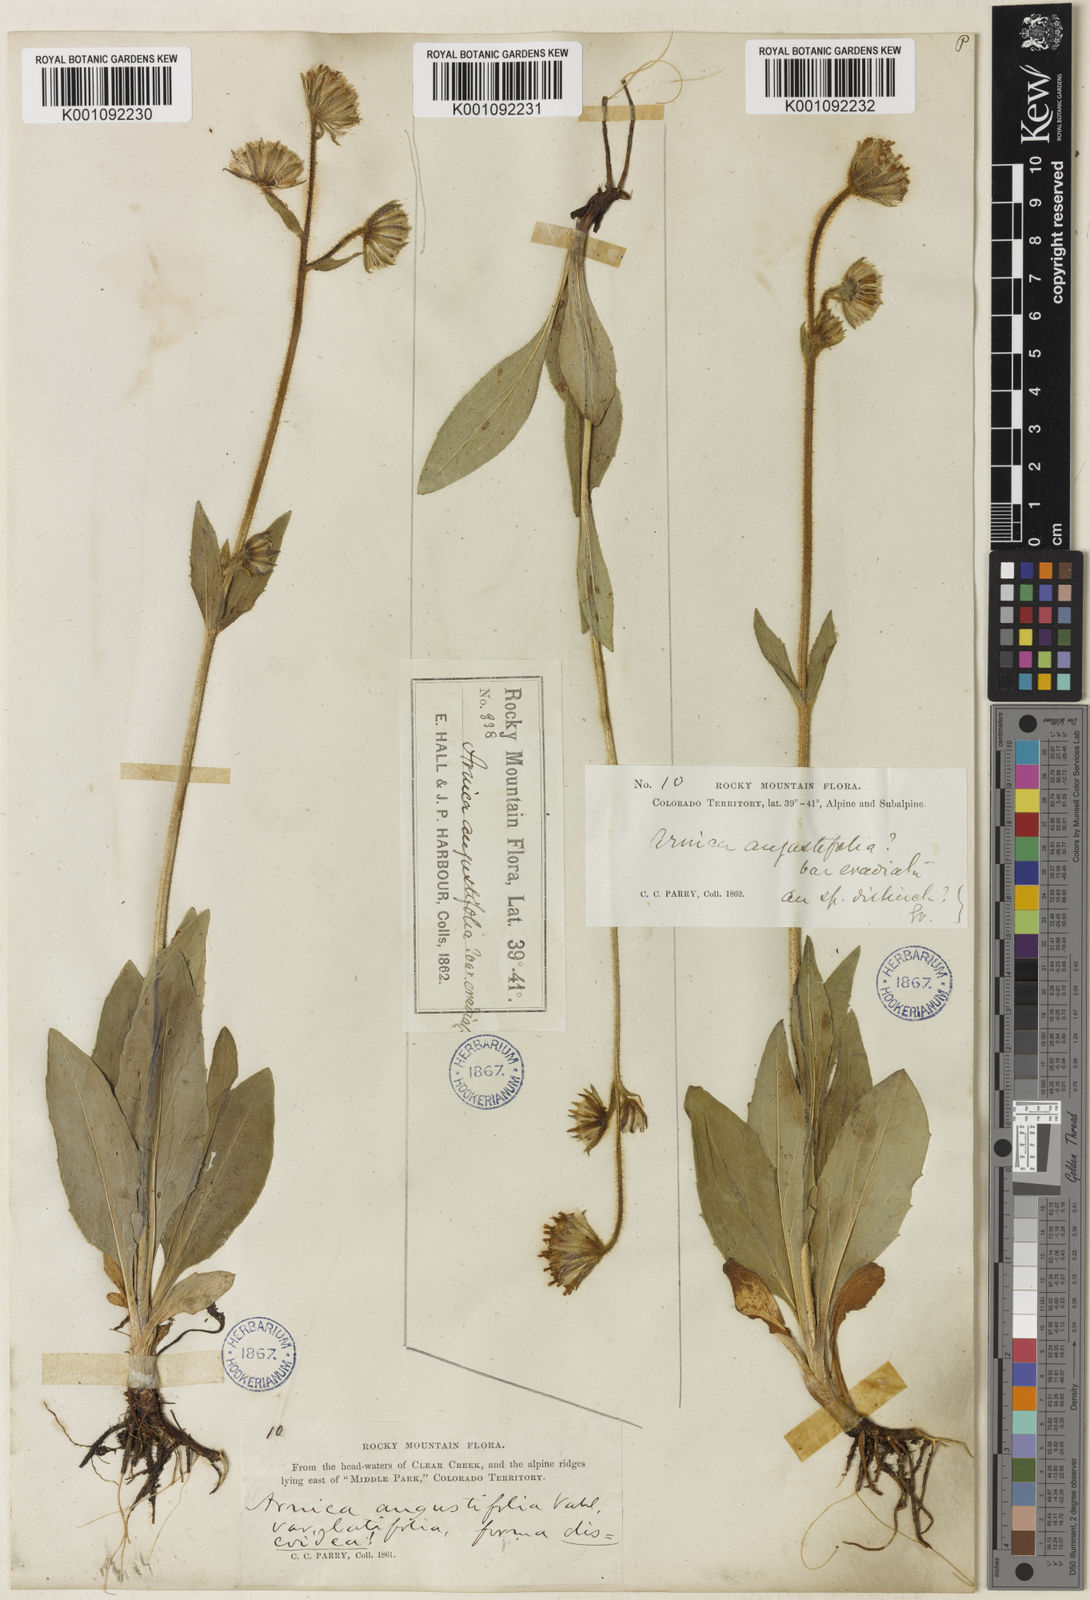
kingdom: Plantae
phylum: Tracheophyta
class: Magnoliopsida
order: Asterales
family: Asteraceae
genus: Arnica
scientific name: Arnica parryi
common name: Parry's arnica
